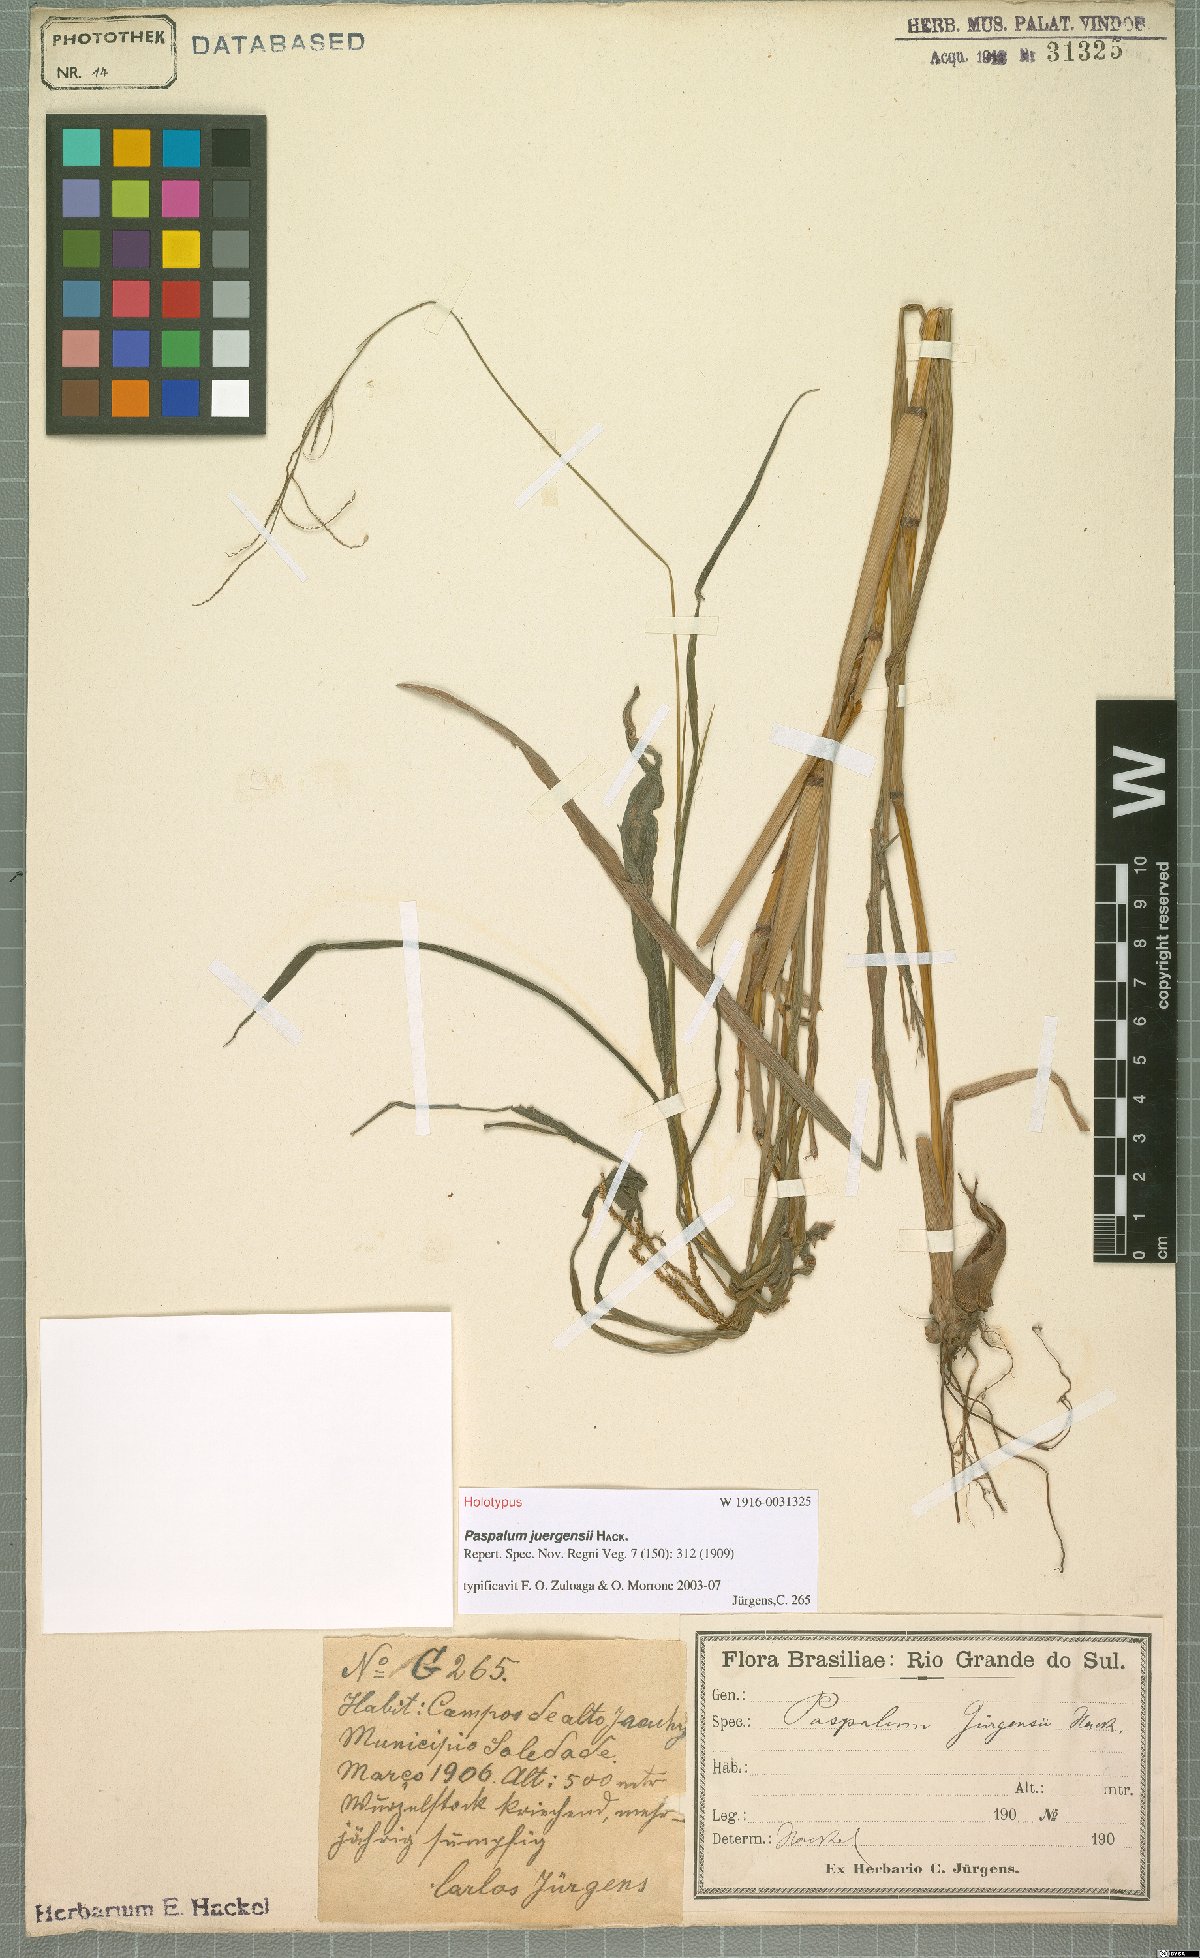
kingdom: Plantae
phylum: Tracheophyta
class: Liliopsida
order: Poales
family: Poaceae
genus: Paspalum
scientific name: Paspalum juergensii
